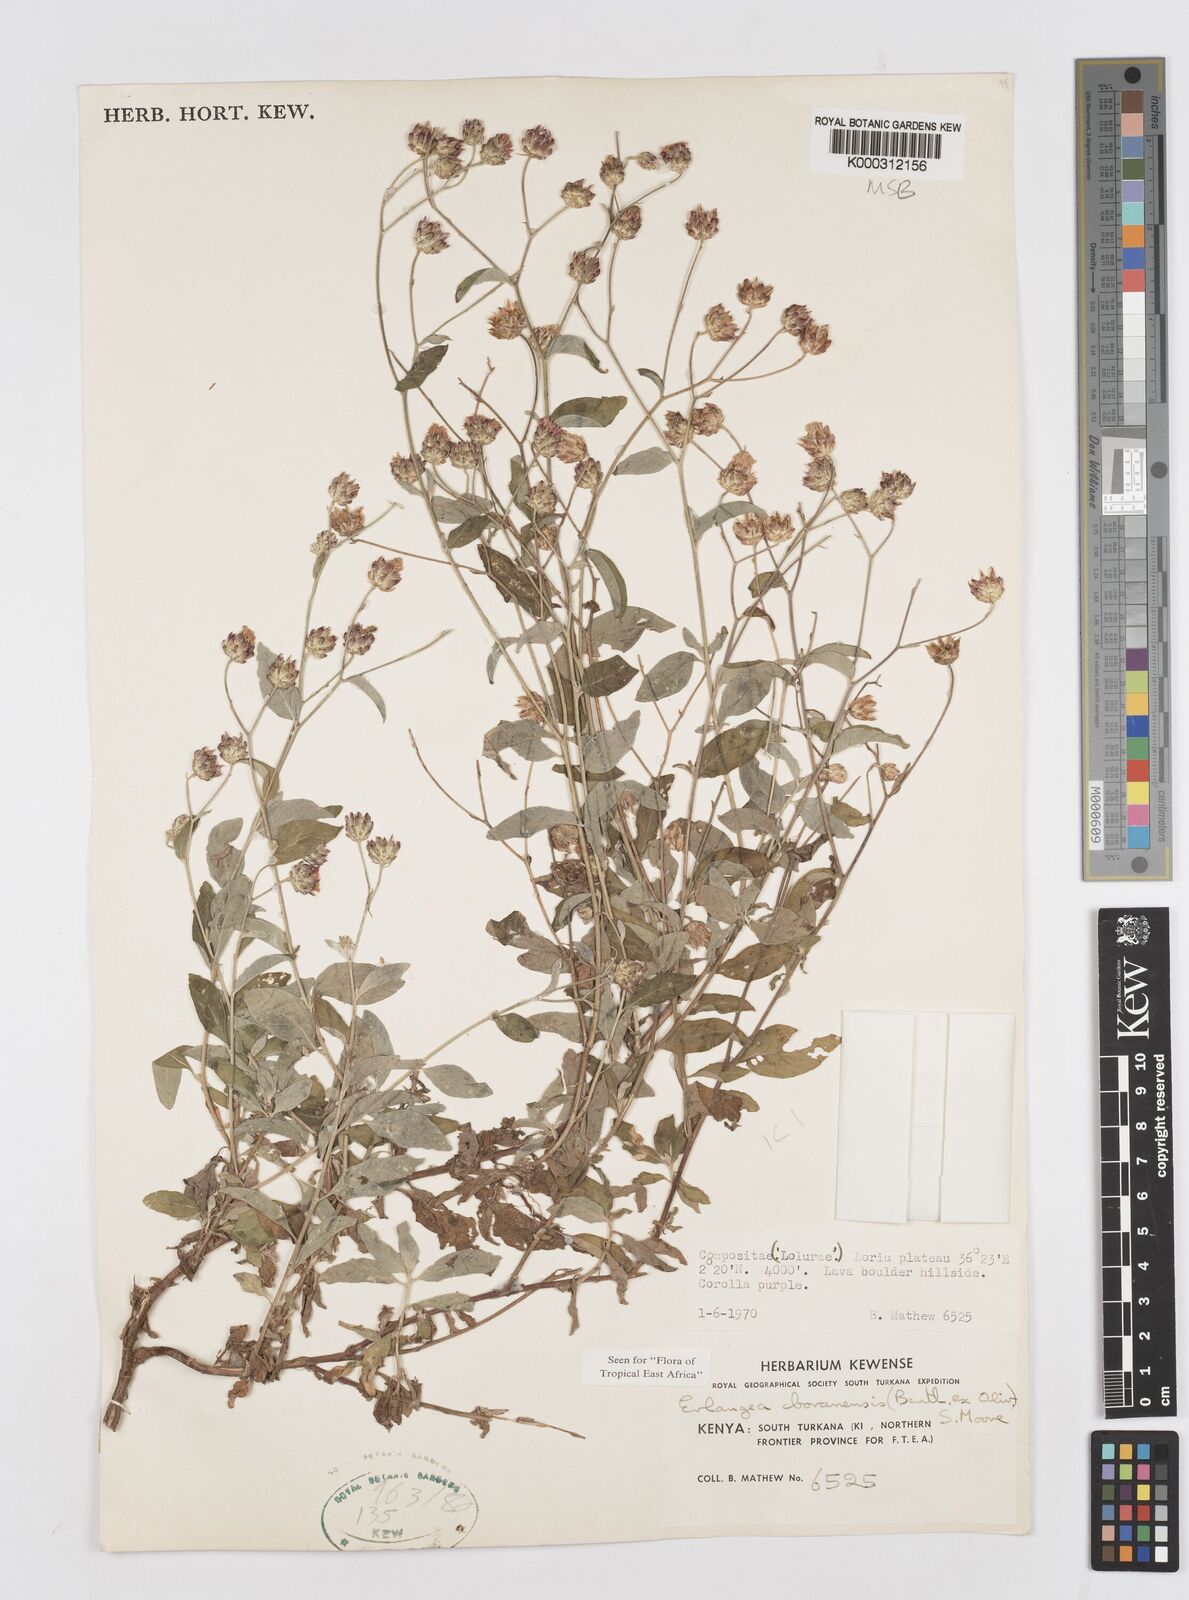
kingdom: Plantae
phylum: Tracheophyta
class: Magnoliopsida
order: Asterales
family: Asteraceae
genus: Gutenbergia
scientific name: Gutenbergia boranensis
